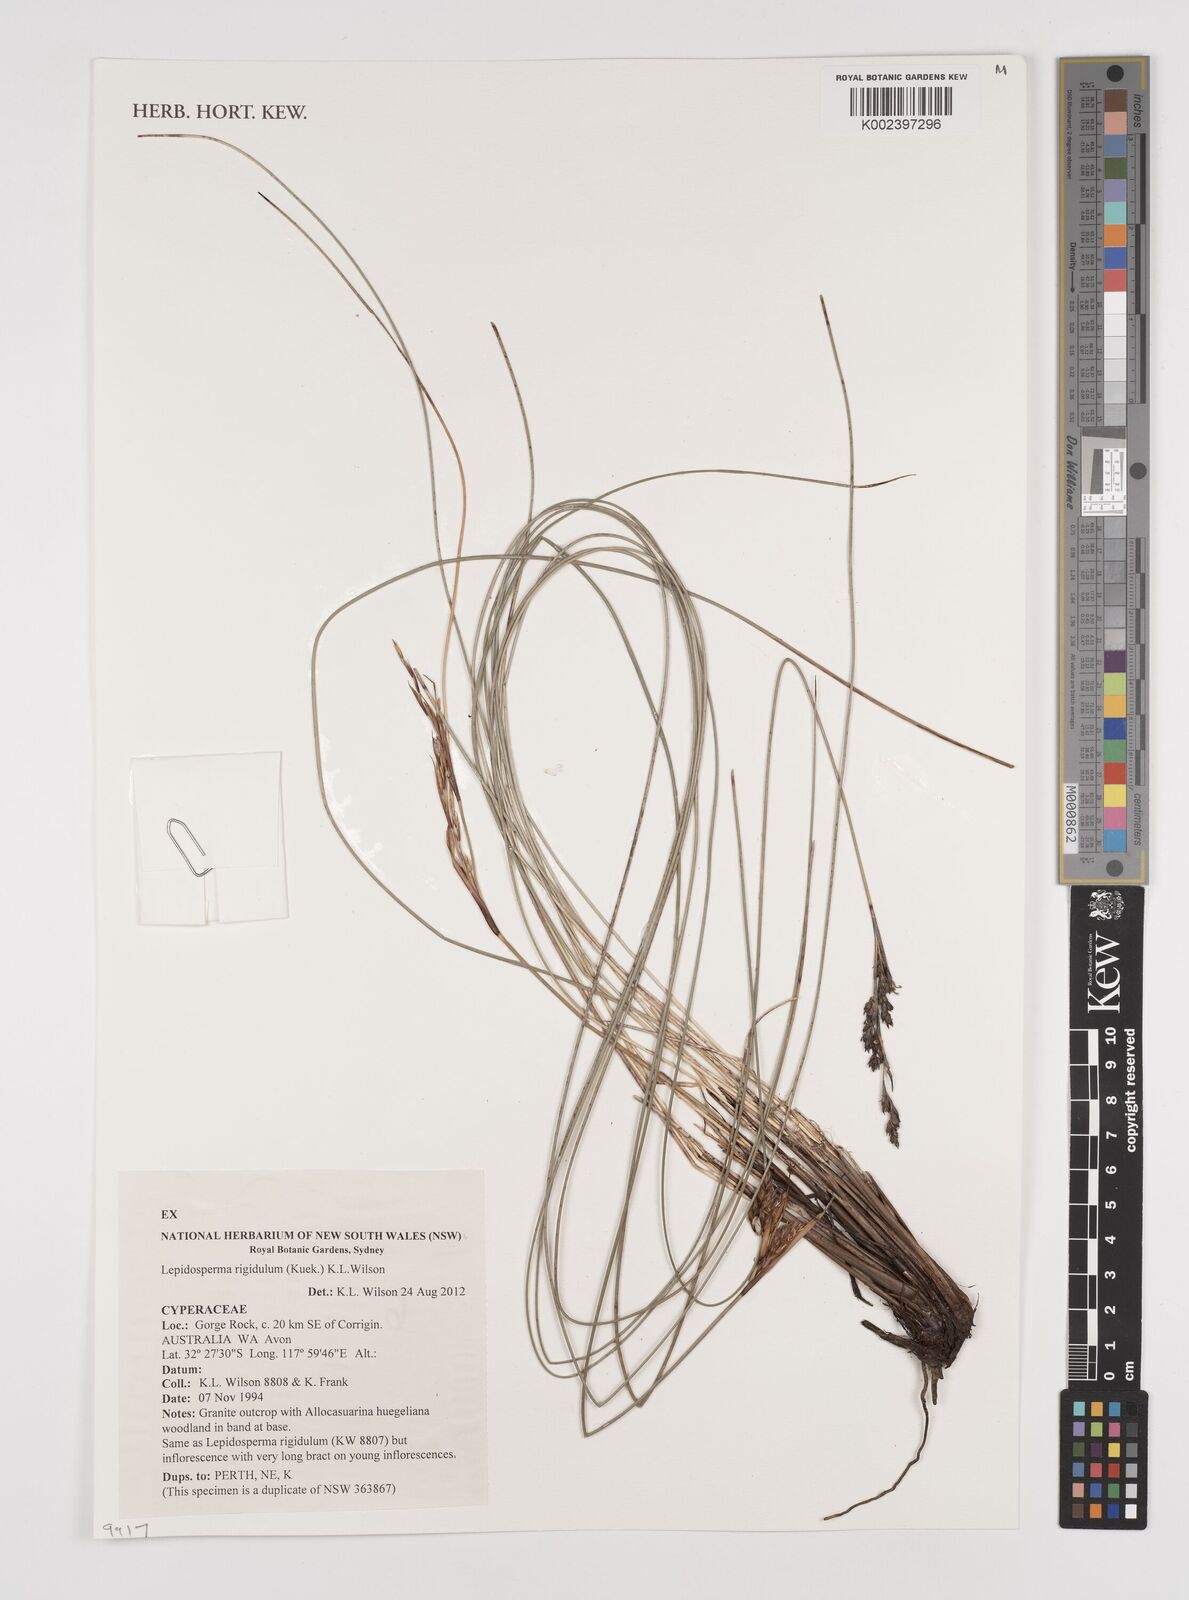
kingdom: Plantae
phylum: Tracheophyta
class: Liliopsida
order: Poales
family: Cyperaceae
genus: Lepidosperma
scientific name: Lepidosperma rigidulum
